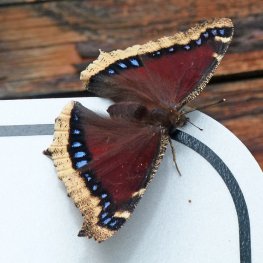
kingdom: Animalia
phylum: Arthropoda
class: Insecta
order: Lepidoptera
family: Nymphalidae
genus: Nymphalis
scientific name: Nymphalis antiopa
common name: Mourning Cloak
